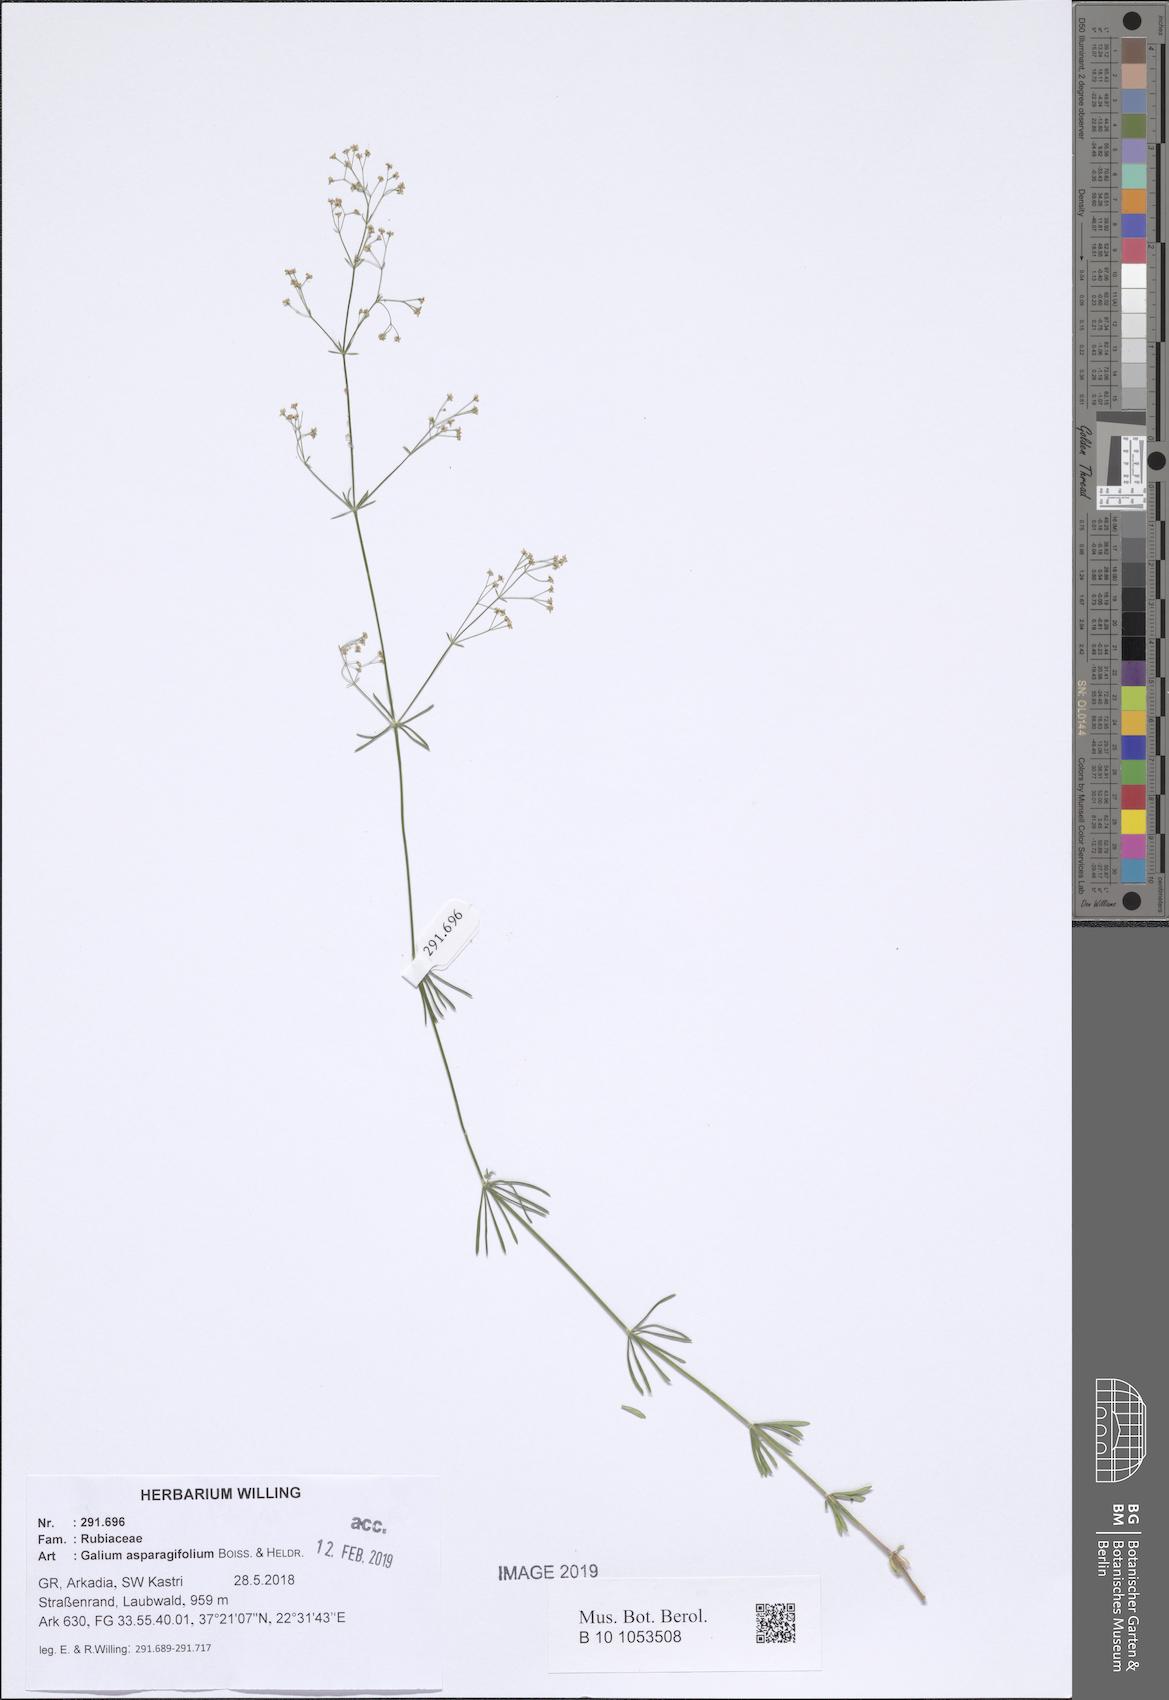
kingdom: Plantae
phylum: Tracheophyta
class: Magnoliopsida
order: Gentianales
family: Rubiaceae
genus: Galium
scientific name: Galium asparagifolium
